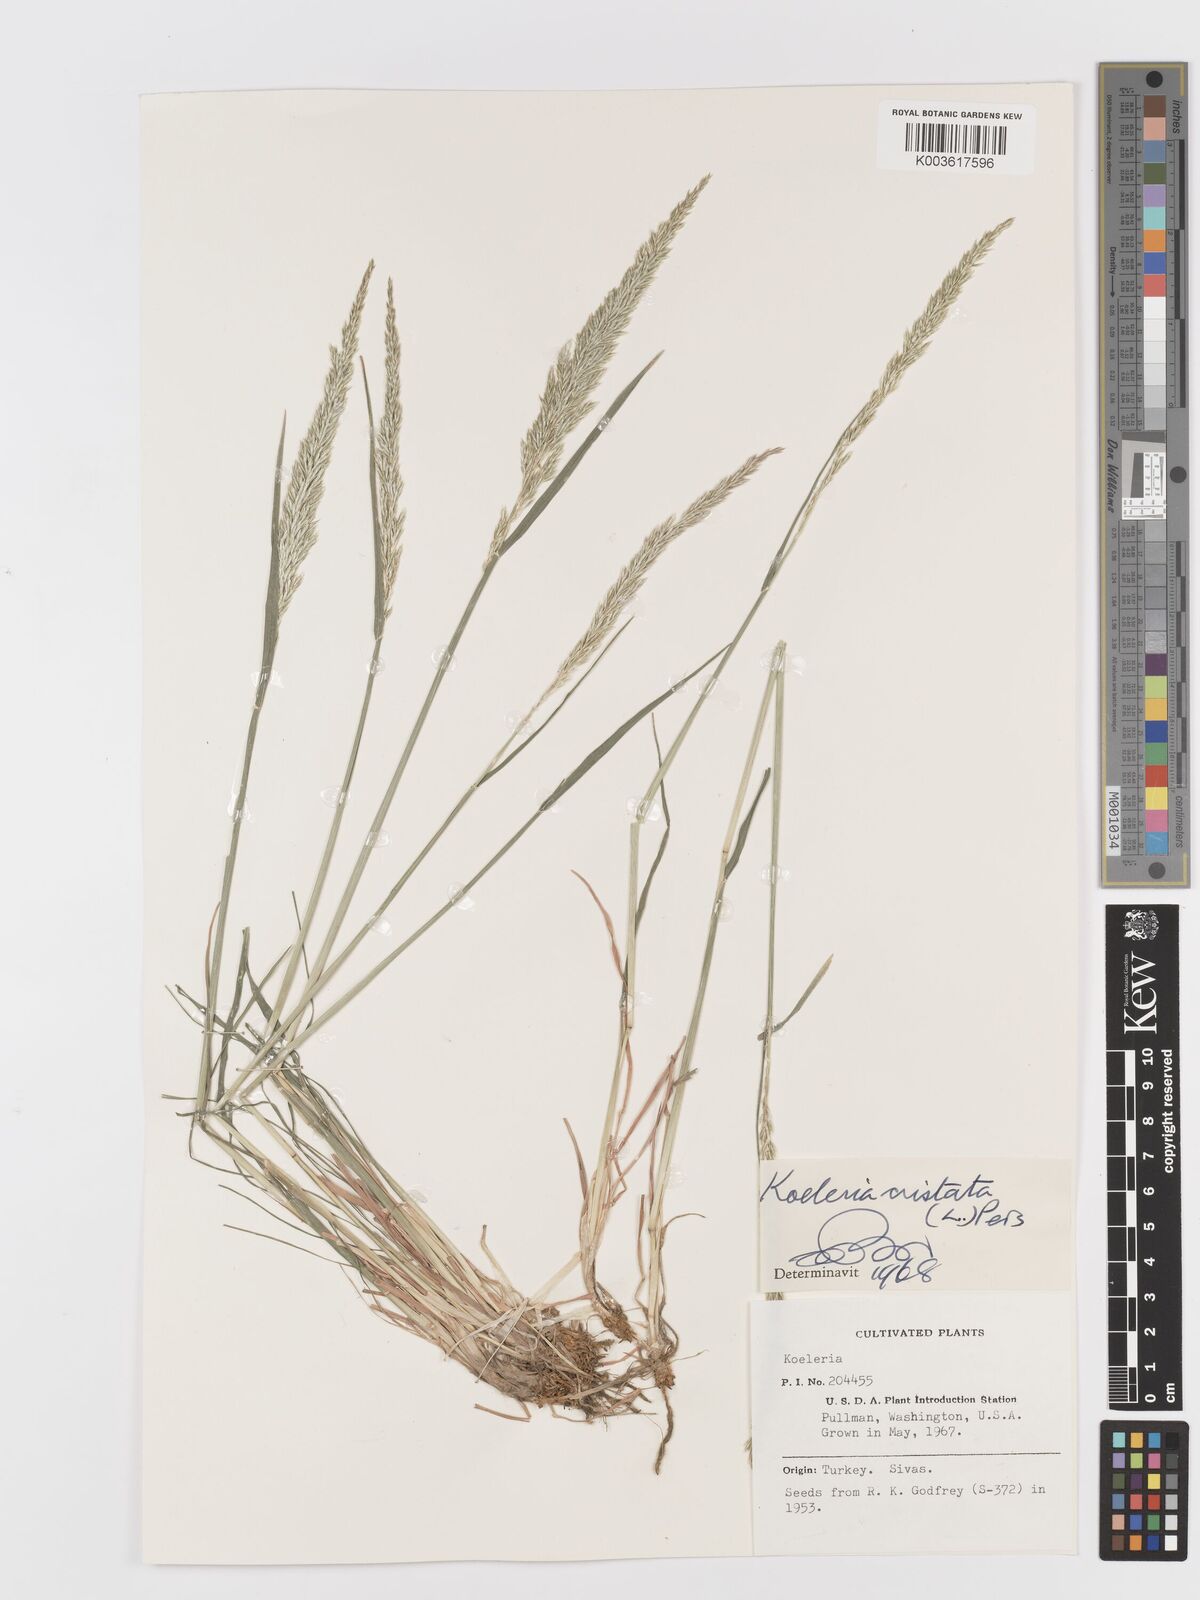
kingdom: Plantae
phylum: Tracheophyta
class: Liliopsida
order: Poales
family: Poaceae
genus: Koeleria
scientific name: Koeleria macrantha
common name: Crested hair-grass
